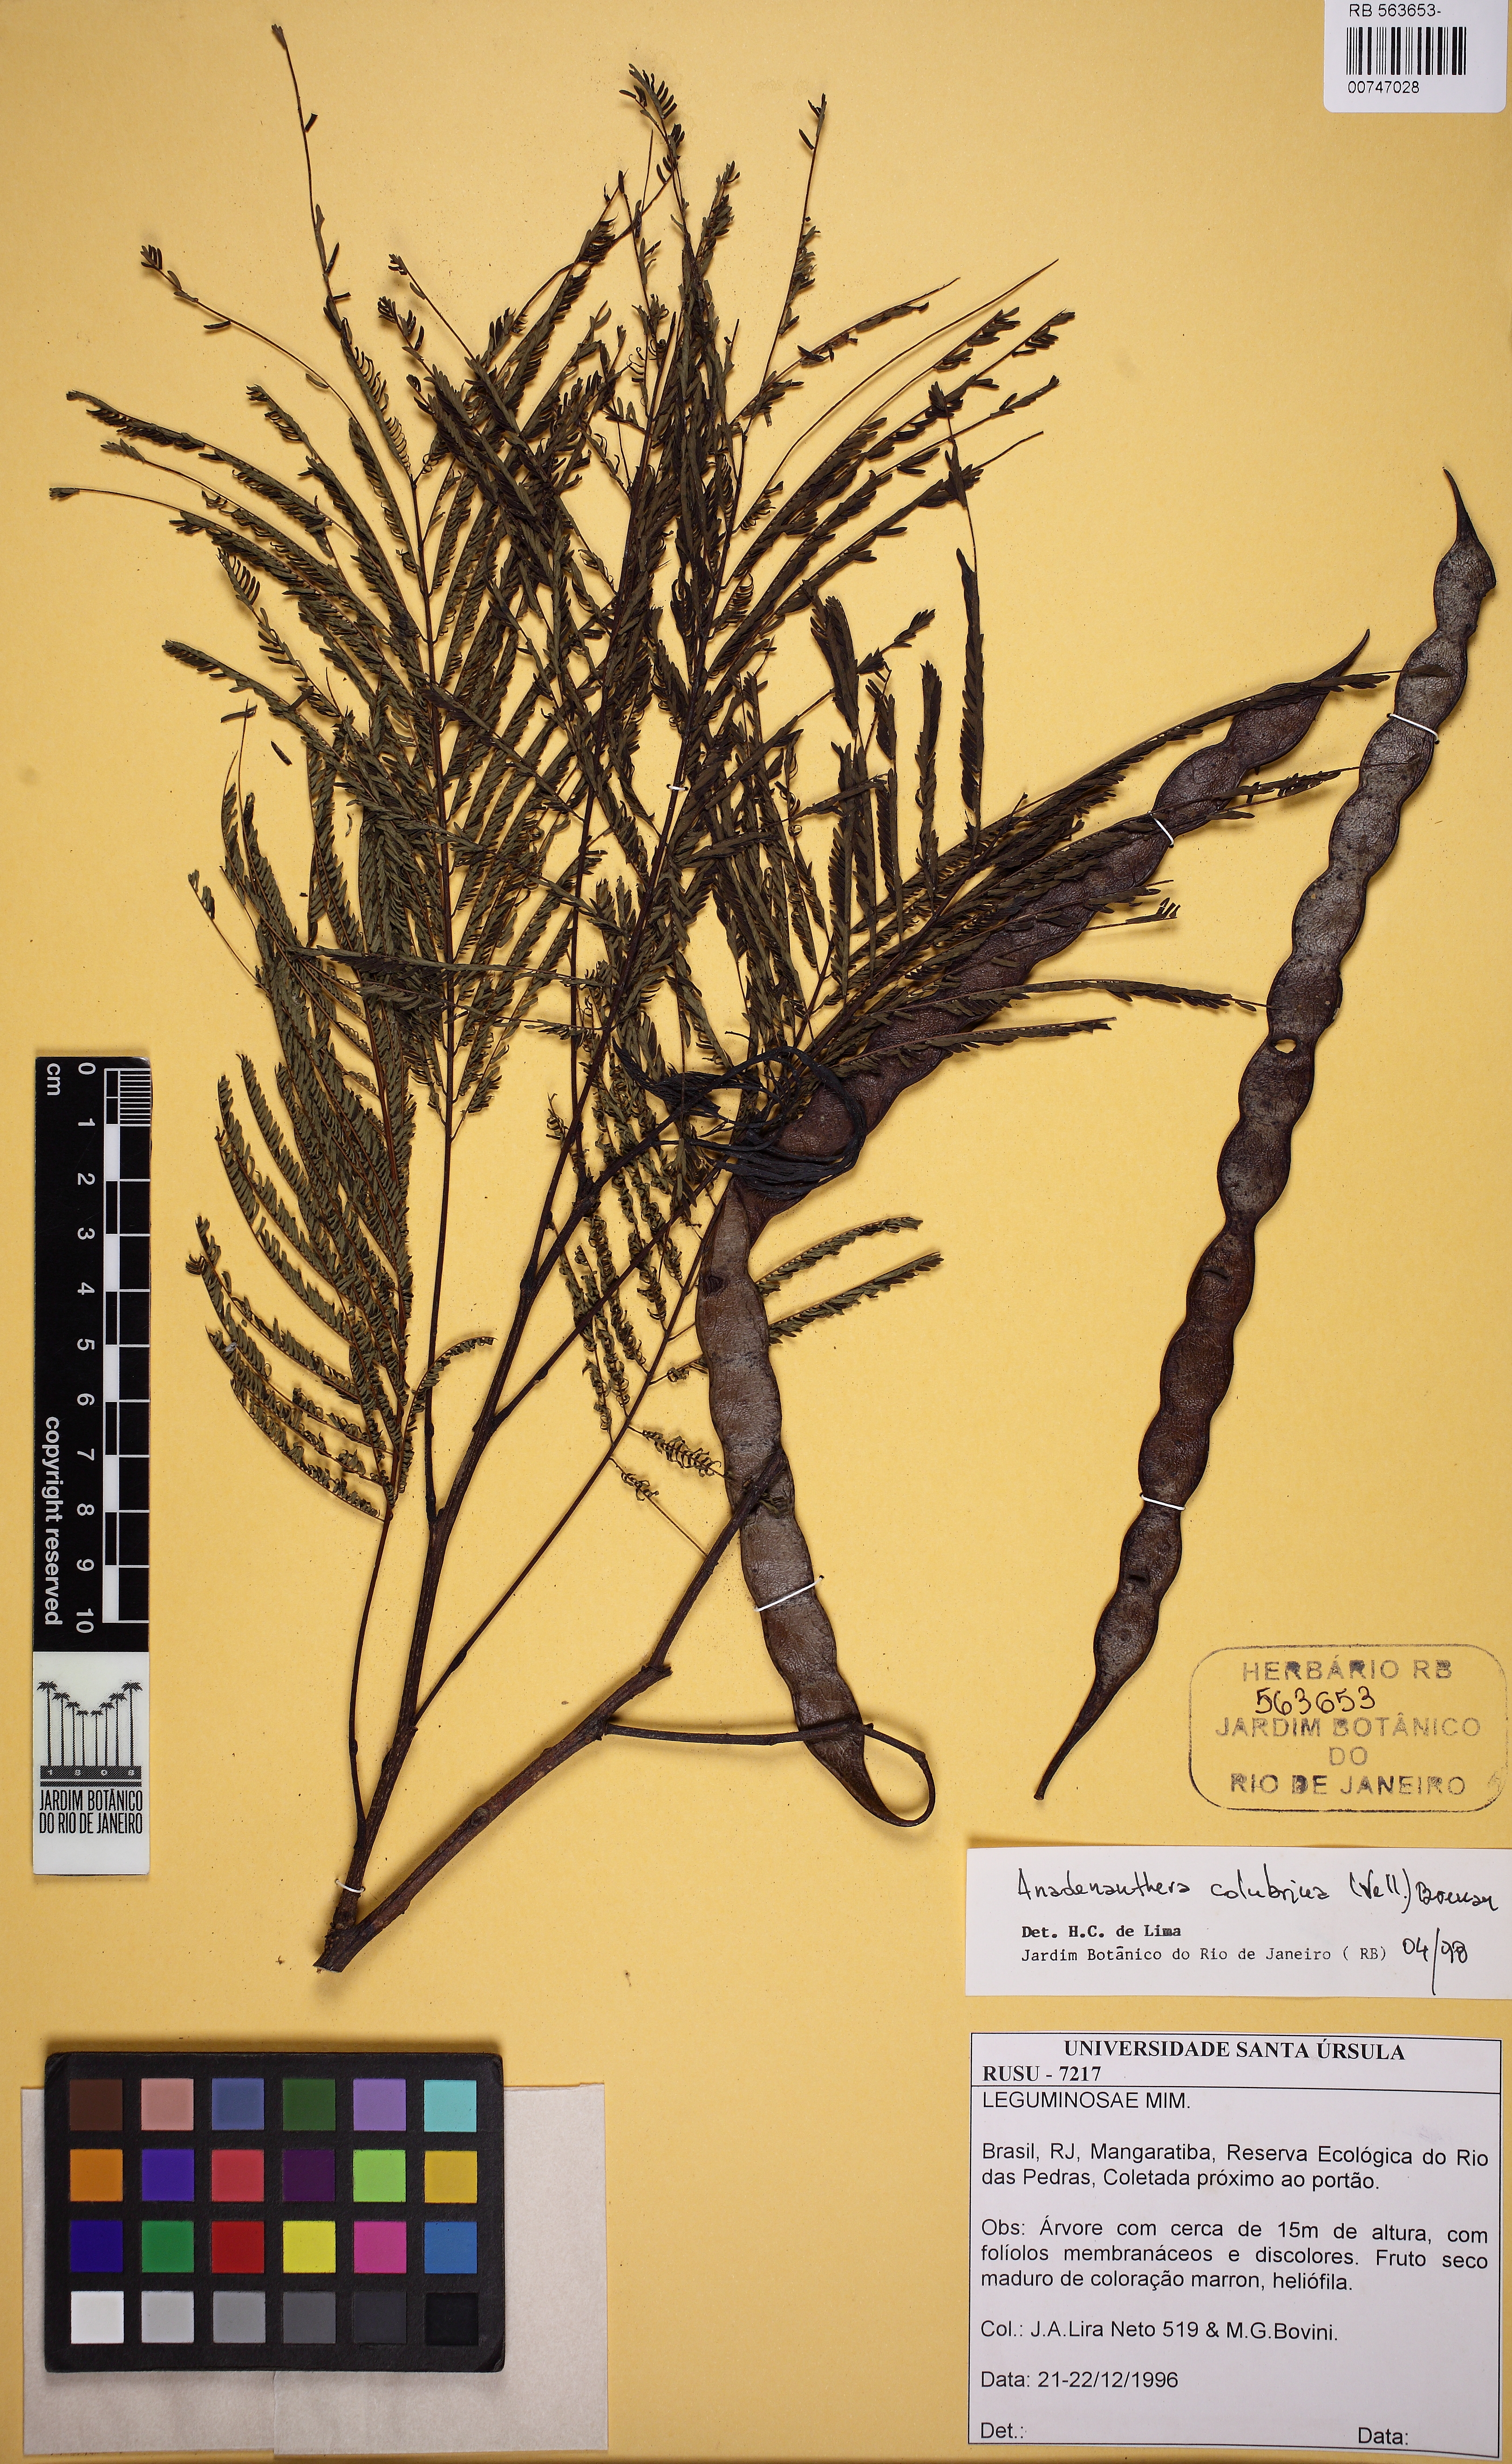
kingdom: Plantae
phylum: Tracheophyta
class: Magnoliopsida
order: Fabales
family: Fabaceae
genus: Anadenanthera
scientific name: Anadenanthera colubrina
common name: Curupay
